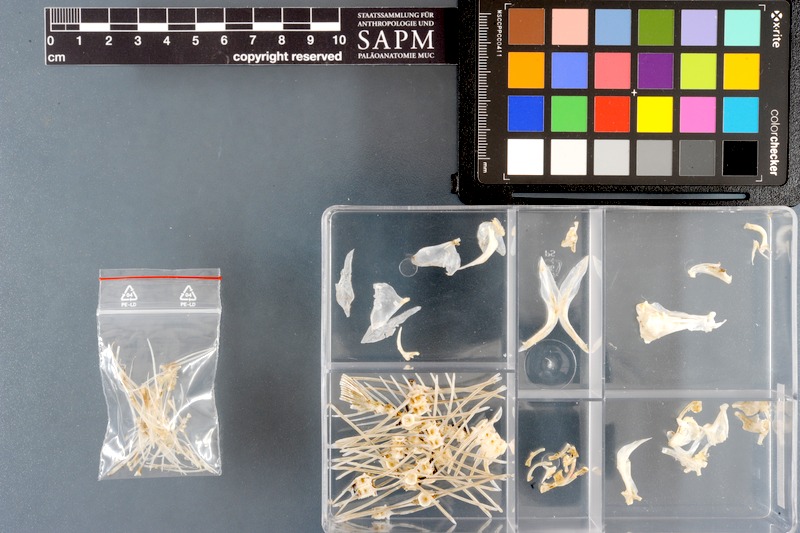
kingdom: Animalia
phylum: Chordata
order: Pleuronectiformes
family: Soleidae
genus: Brachirus
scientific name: Brachirus orientalis
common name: Oriental sole
